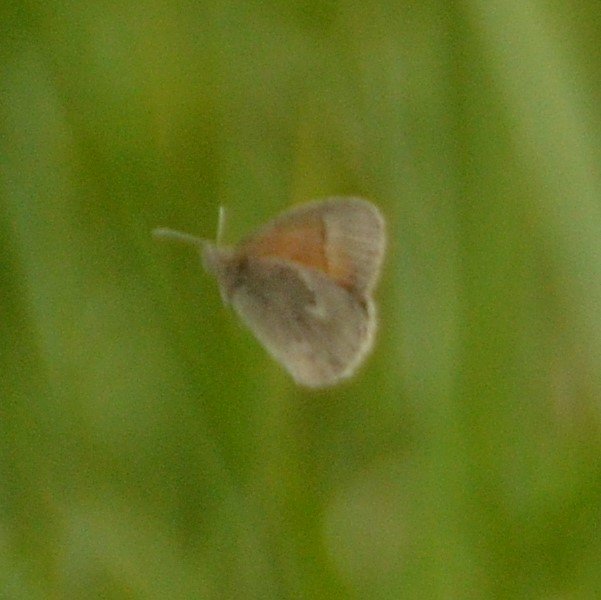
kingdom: Animalia
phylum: Arthropoda
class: Insecta
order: Lepidoptera
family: Nymphalidae
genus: Coenonympha
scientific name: Coenonympha tullia
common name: Large Heath
